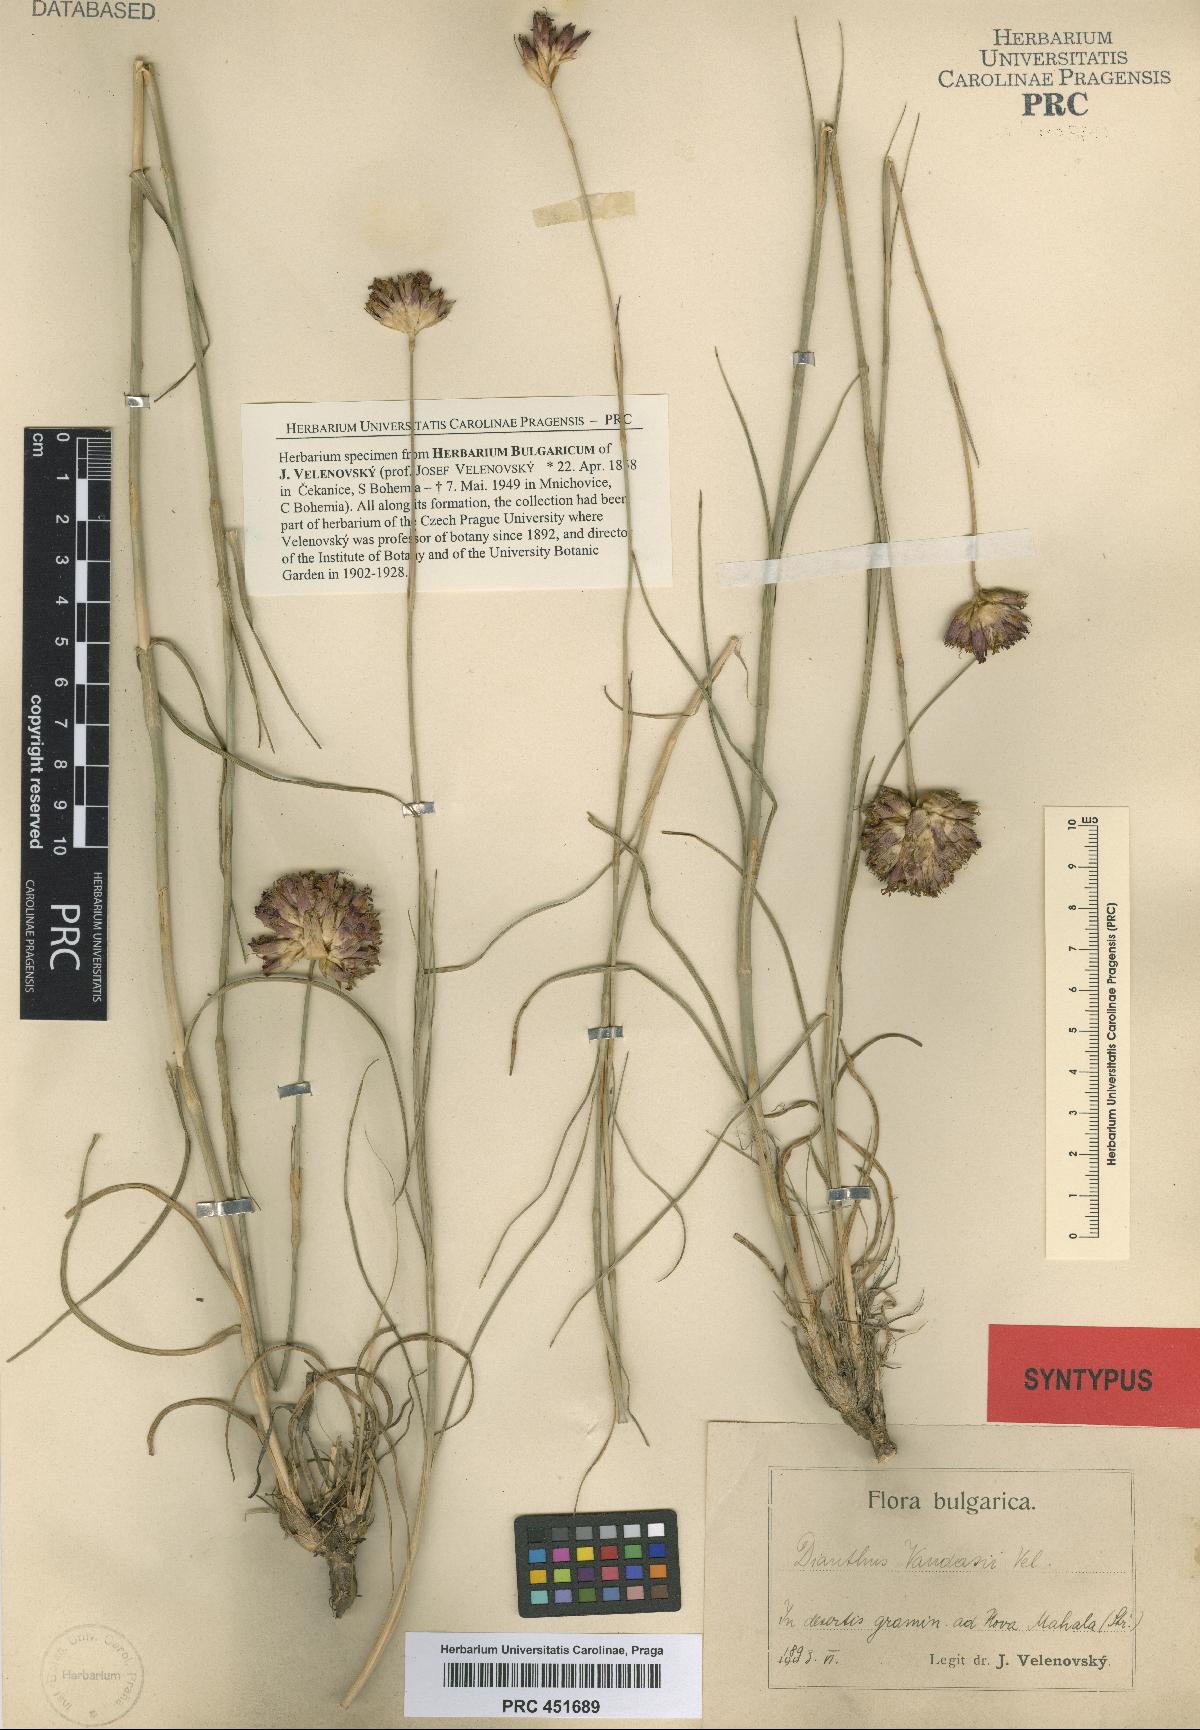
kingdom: Plantae
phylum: Tracheophyta
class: Magnoliopsida
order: Caryophyllales
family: Caryophyllaceae
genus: Dianthus
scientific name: Dianthus giganteus
